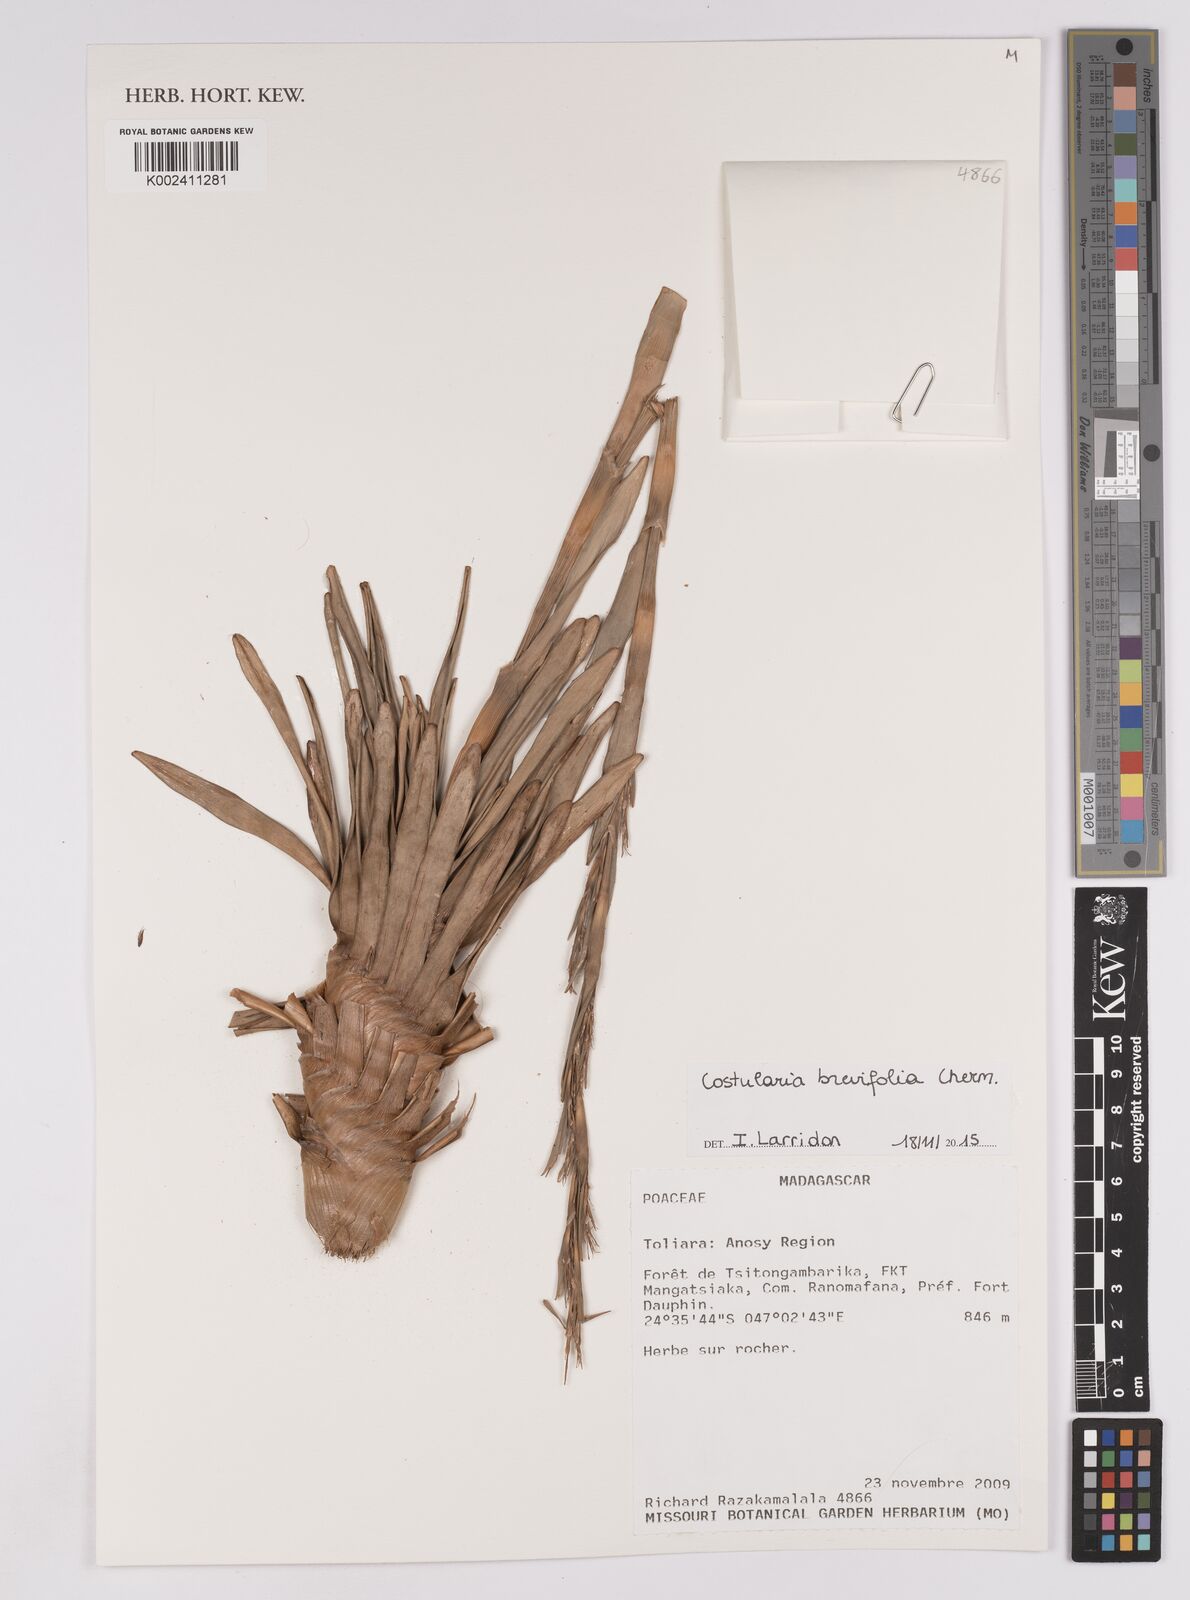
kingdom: Plantae
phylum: Tracheophyta
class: Liliopsida
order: Poales
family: Cyperaceae
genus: Costularia
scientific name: Costularia brevifolia
